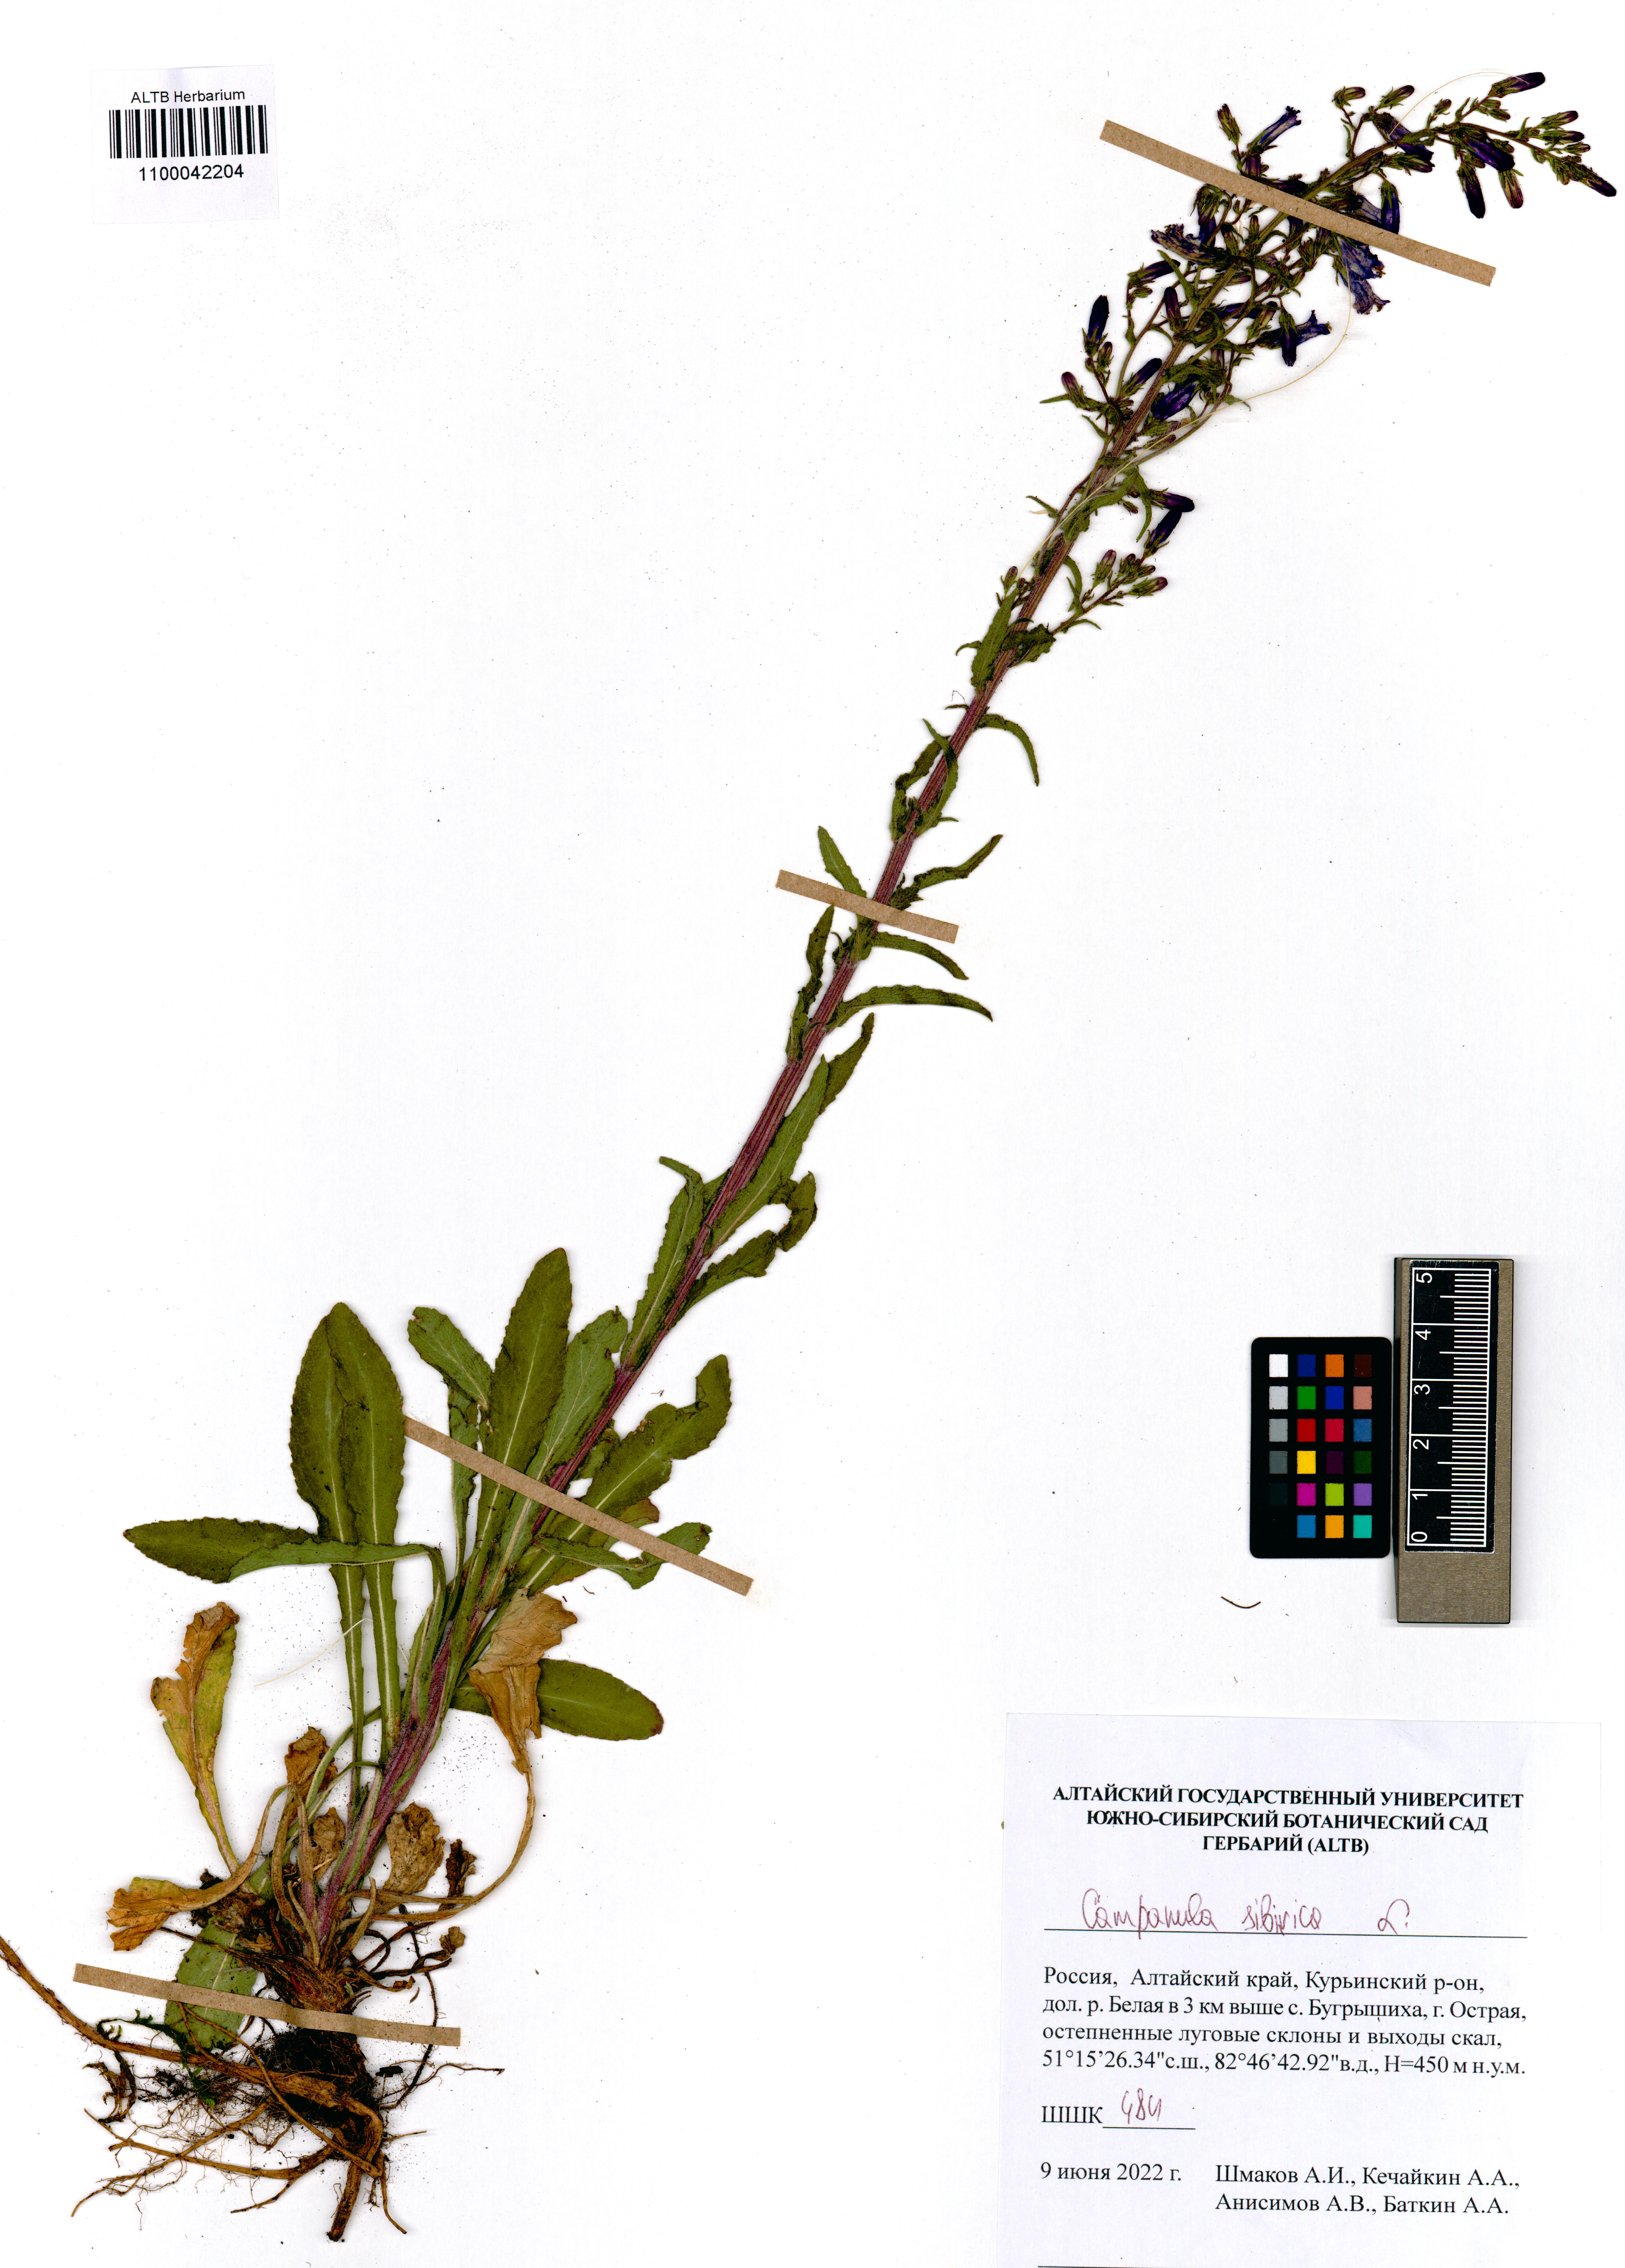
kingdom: Plantae
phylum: Tracheophyta
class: Magnoliopsida
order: Asterales
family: Campanulaceae
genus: Campanula
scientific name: Campanula sibirica
